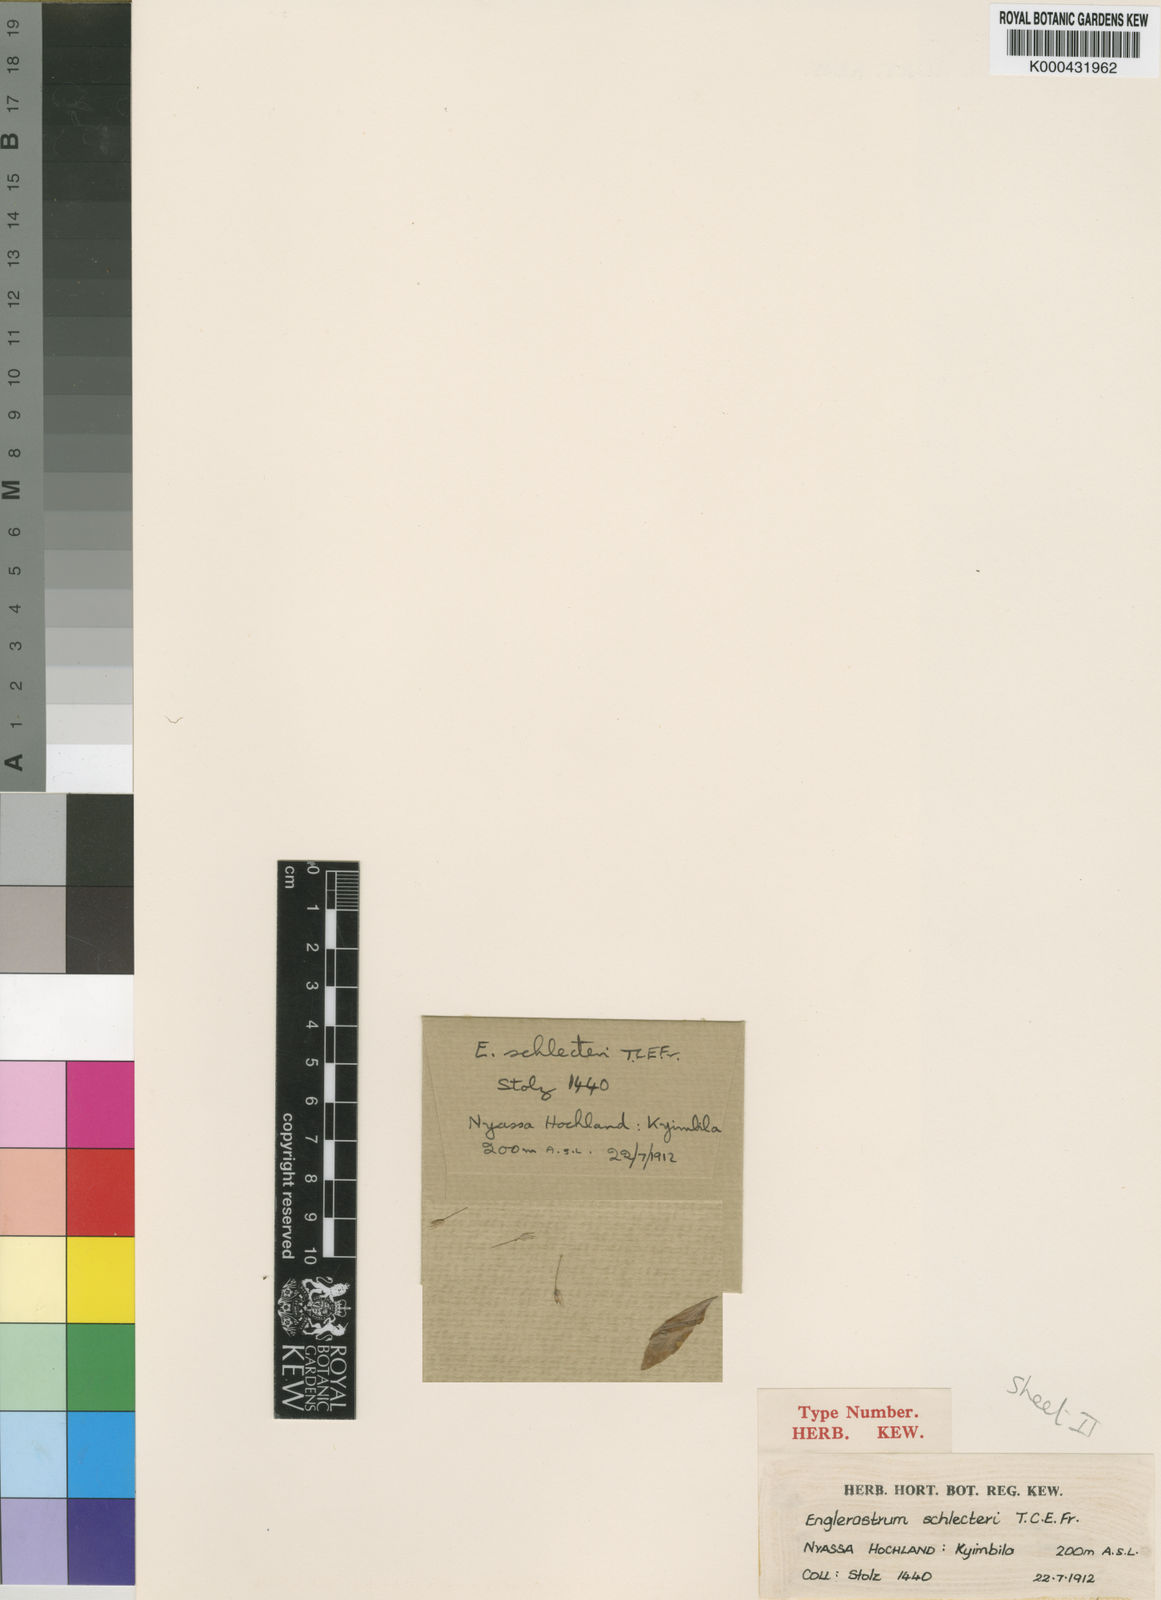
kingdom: Plantae
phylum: Tracheophyta
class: Magnoliopsida
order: Lamiales
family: Lamiaceae
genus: Coleus
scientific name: Coleus gracillimus
